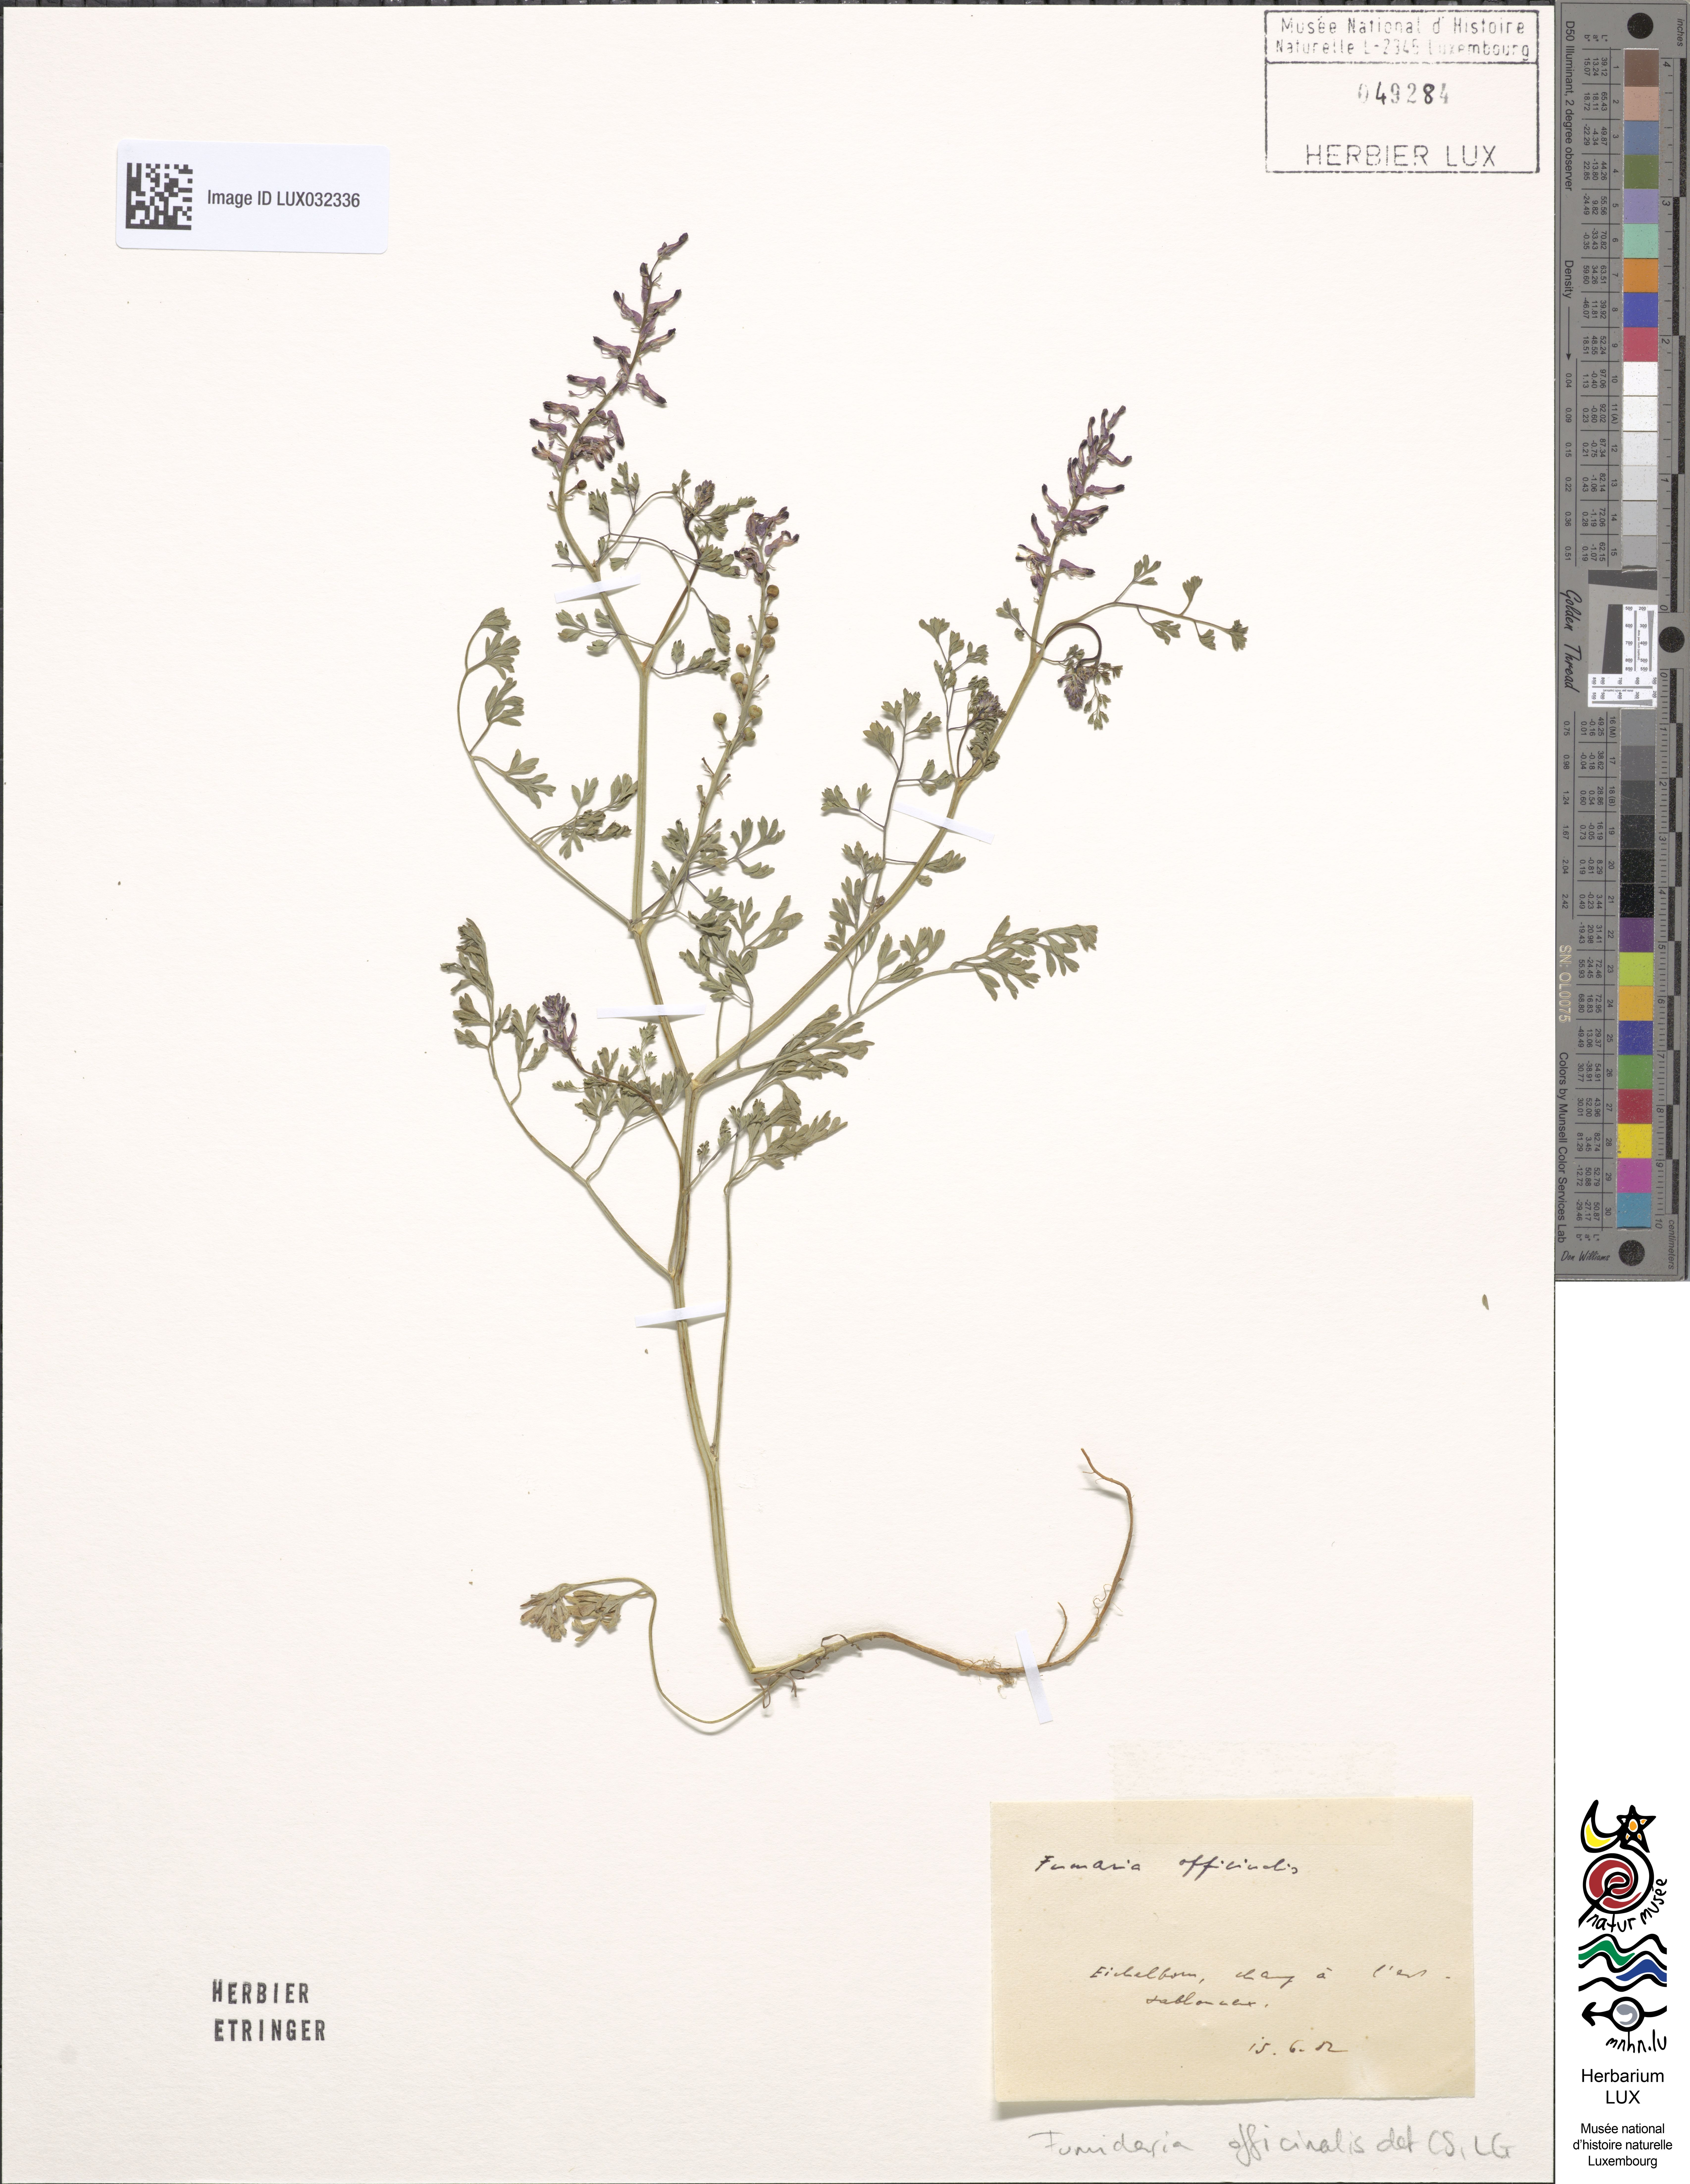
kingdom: Plantae
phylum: Tracheophyta
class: Magnoliopsida
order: Ranunculales
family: Papaveraceae
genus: Fumaria
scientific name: Fumaria officinalis
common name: Common fumitory
